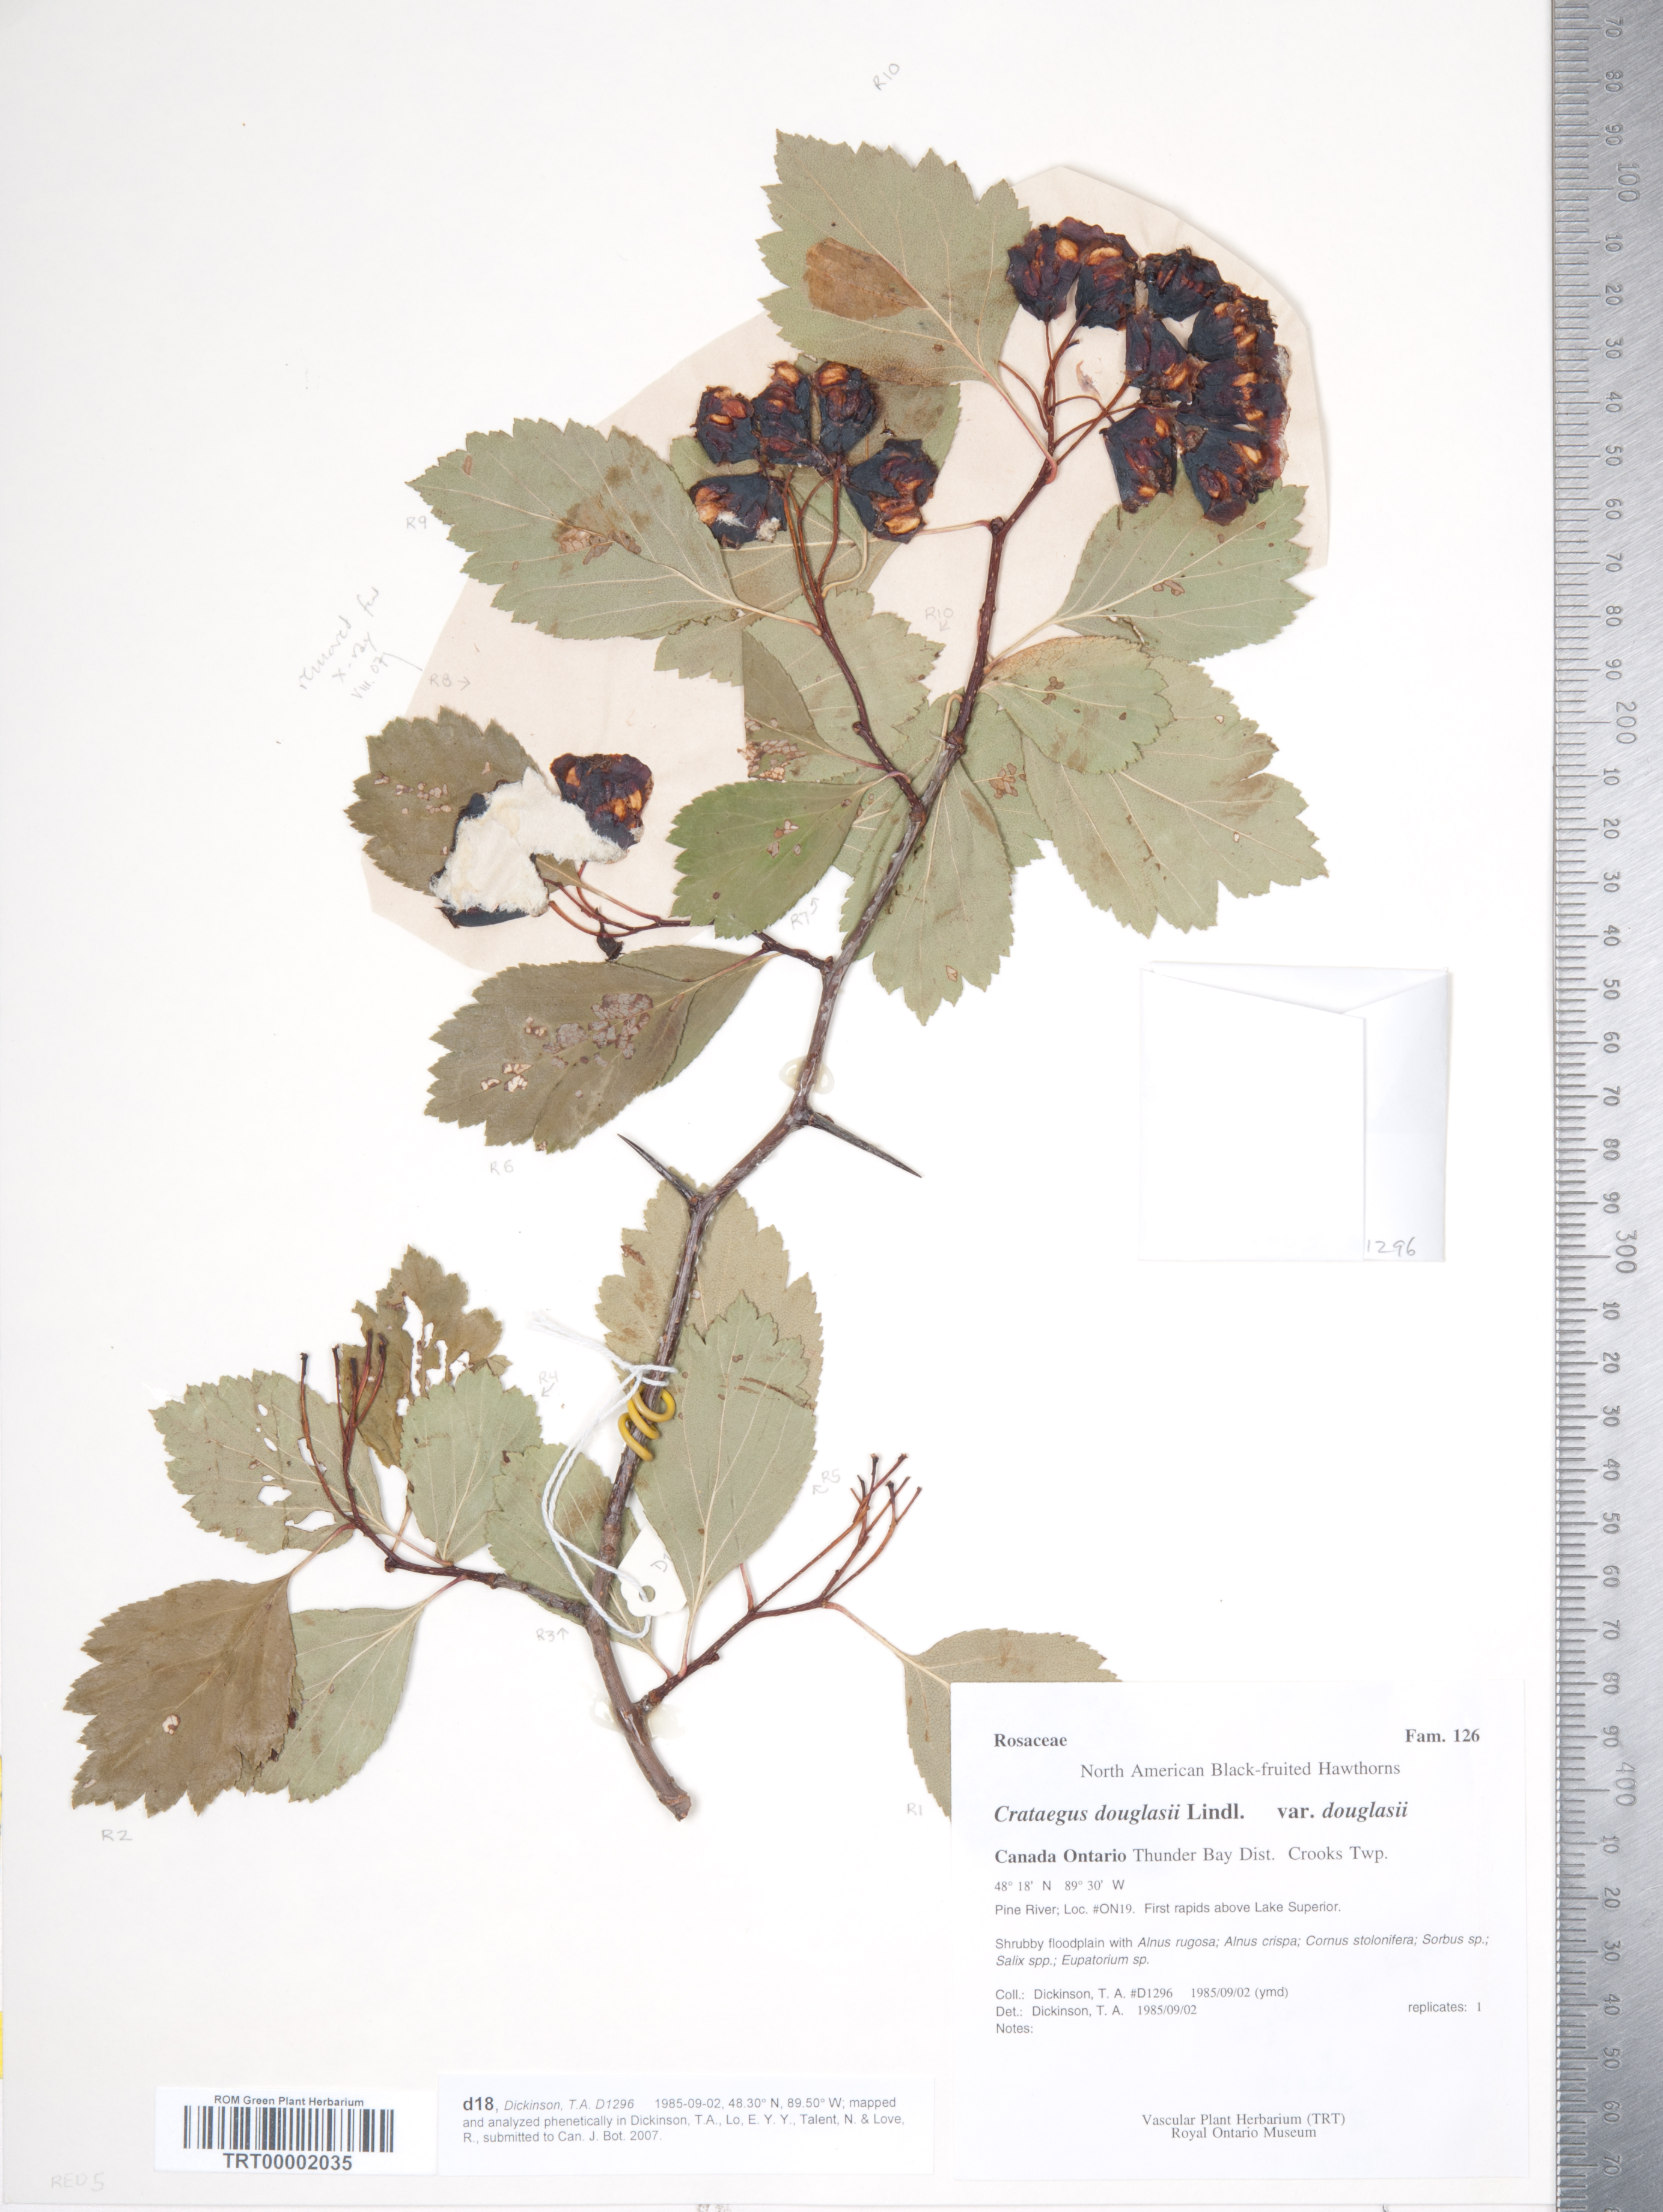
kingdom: Plantae
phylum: Tracheophyta
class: Magnoliopsida
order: Rosales
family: Rosaceae
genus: Crataegus
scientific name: Crataegus douglasii
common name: Black hawthorn
